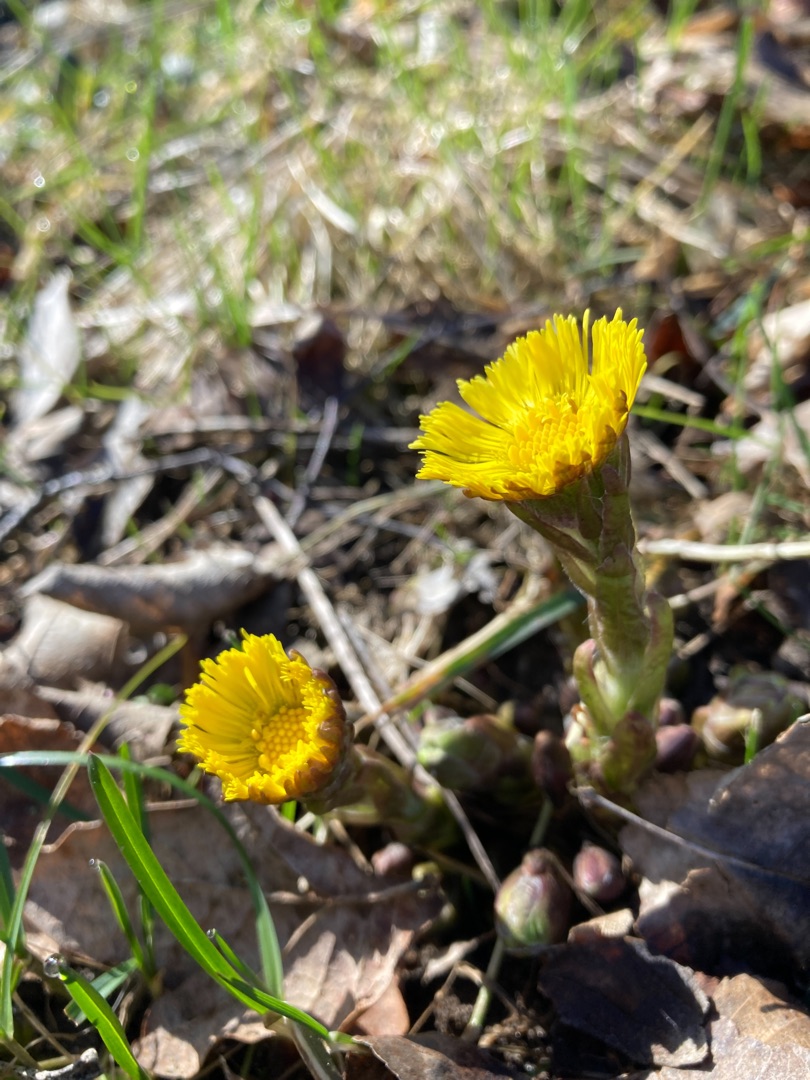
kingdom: Plantae
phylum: Tracheophyta
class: Magnoliopsida
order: Asterales
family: Asteraceae
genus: Tussilago
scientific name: Tussilago farfara
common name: Følfod
